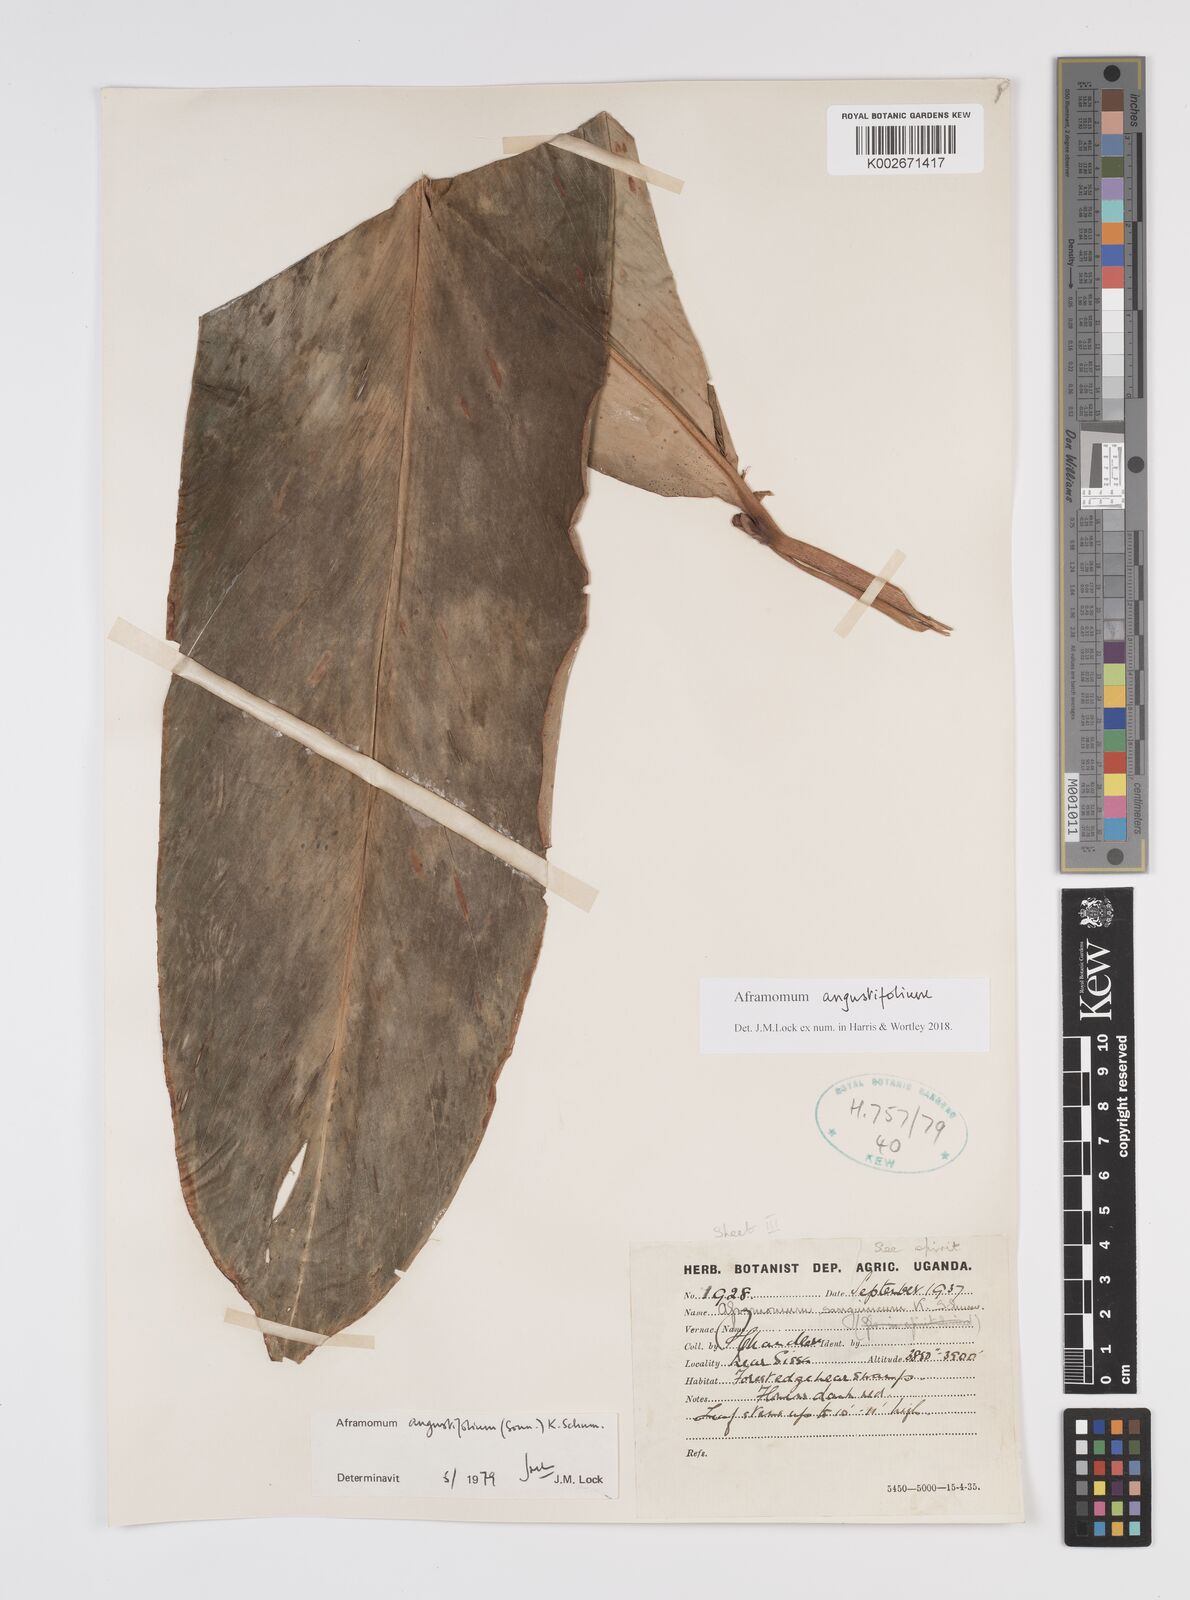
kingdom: Plantae
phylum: Tracheophyta
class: Liliopsida
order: Zingiberales
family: Zingiberaceae
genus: Aframomum
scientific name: Aframomum angustifolium
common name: Guinea grains
